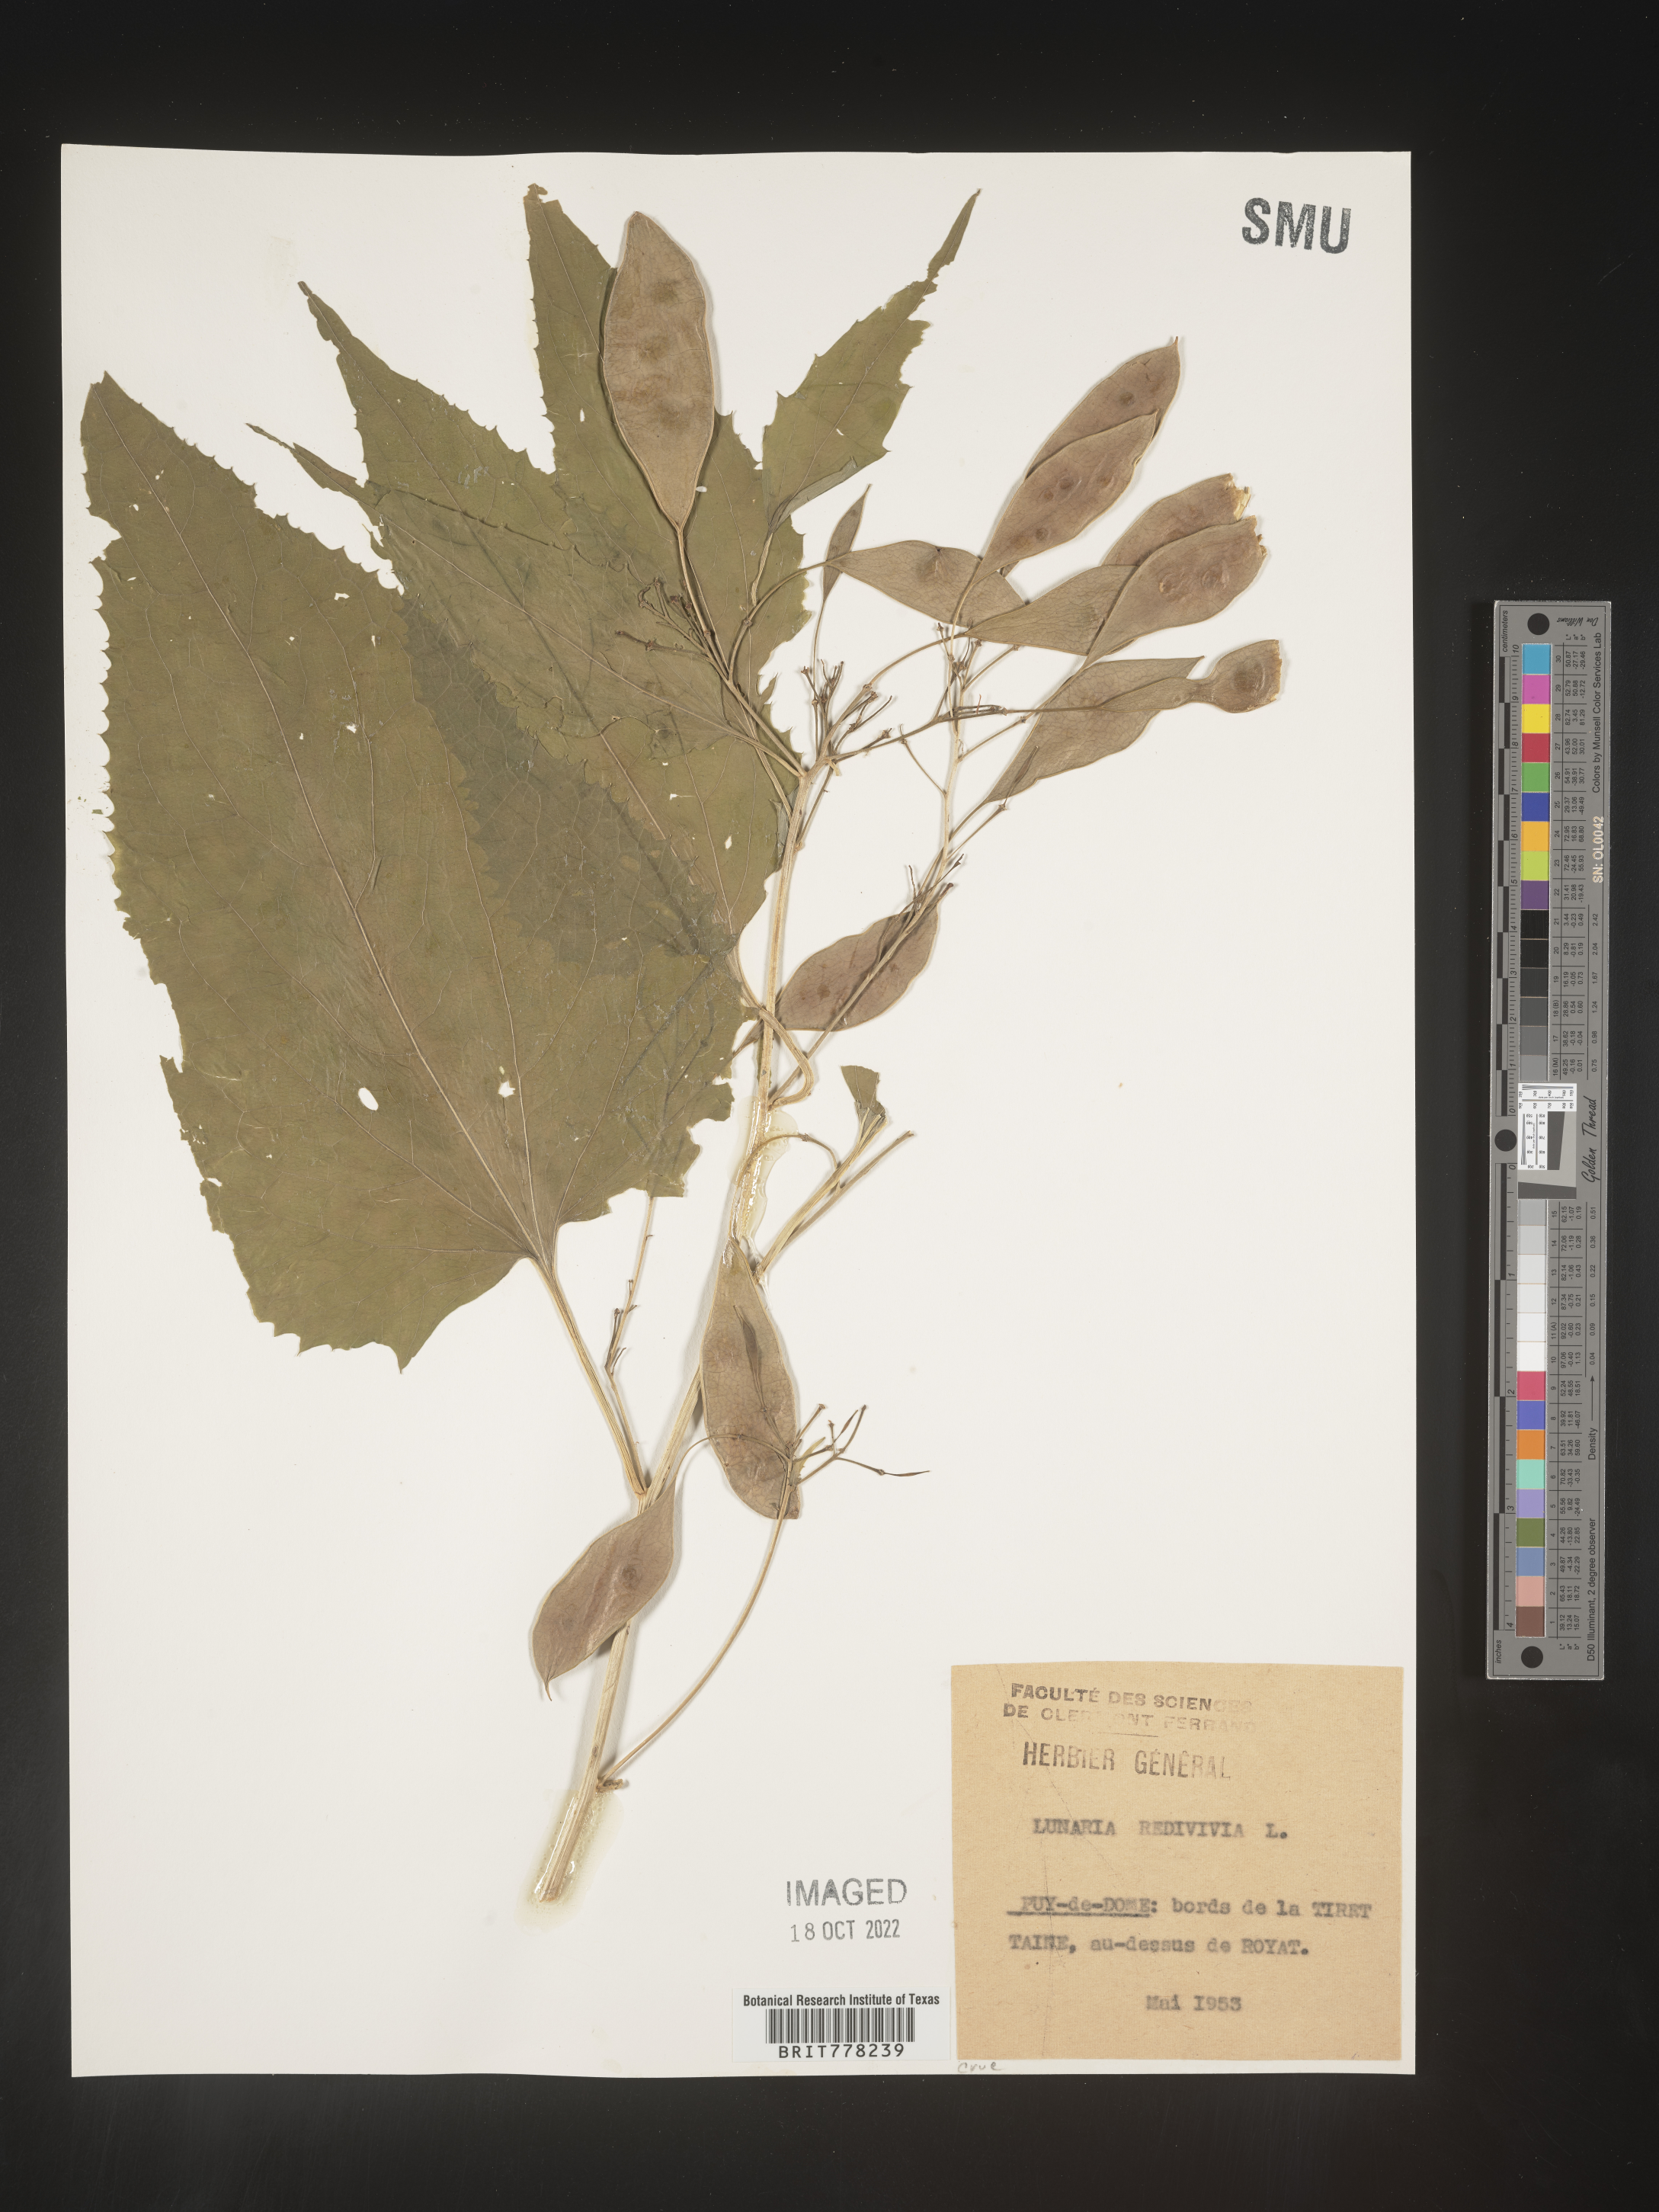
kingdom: Plantae
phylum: Tracheophyta
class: Magnoliopsida
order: Brassicales
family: Brassicaceae
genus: Lunaria
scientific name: Lunaria
